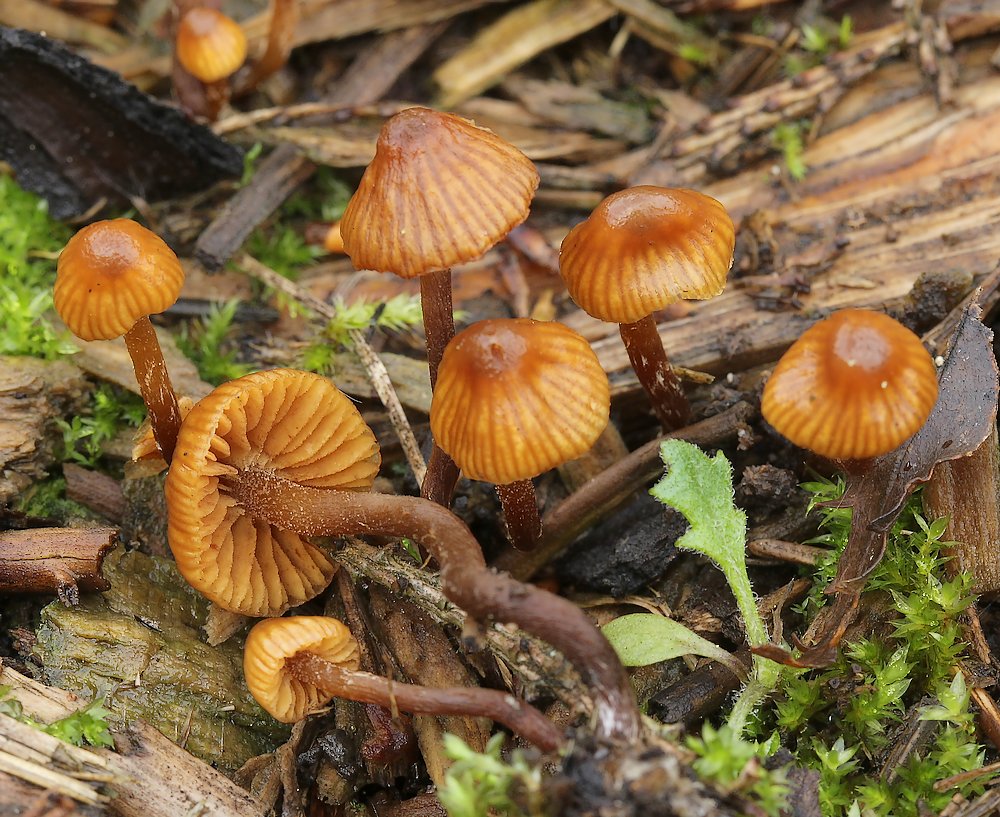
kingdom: Fungi
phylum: Basidiomycota
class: Agaricomycetes
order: Agaricales
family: Hymenogastraceae
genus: Galerina
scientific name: Galerina
